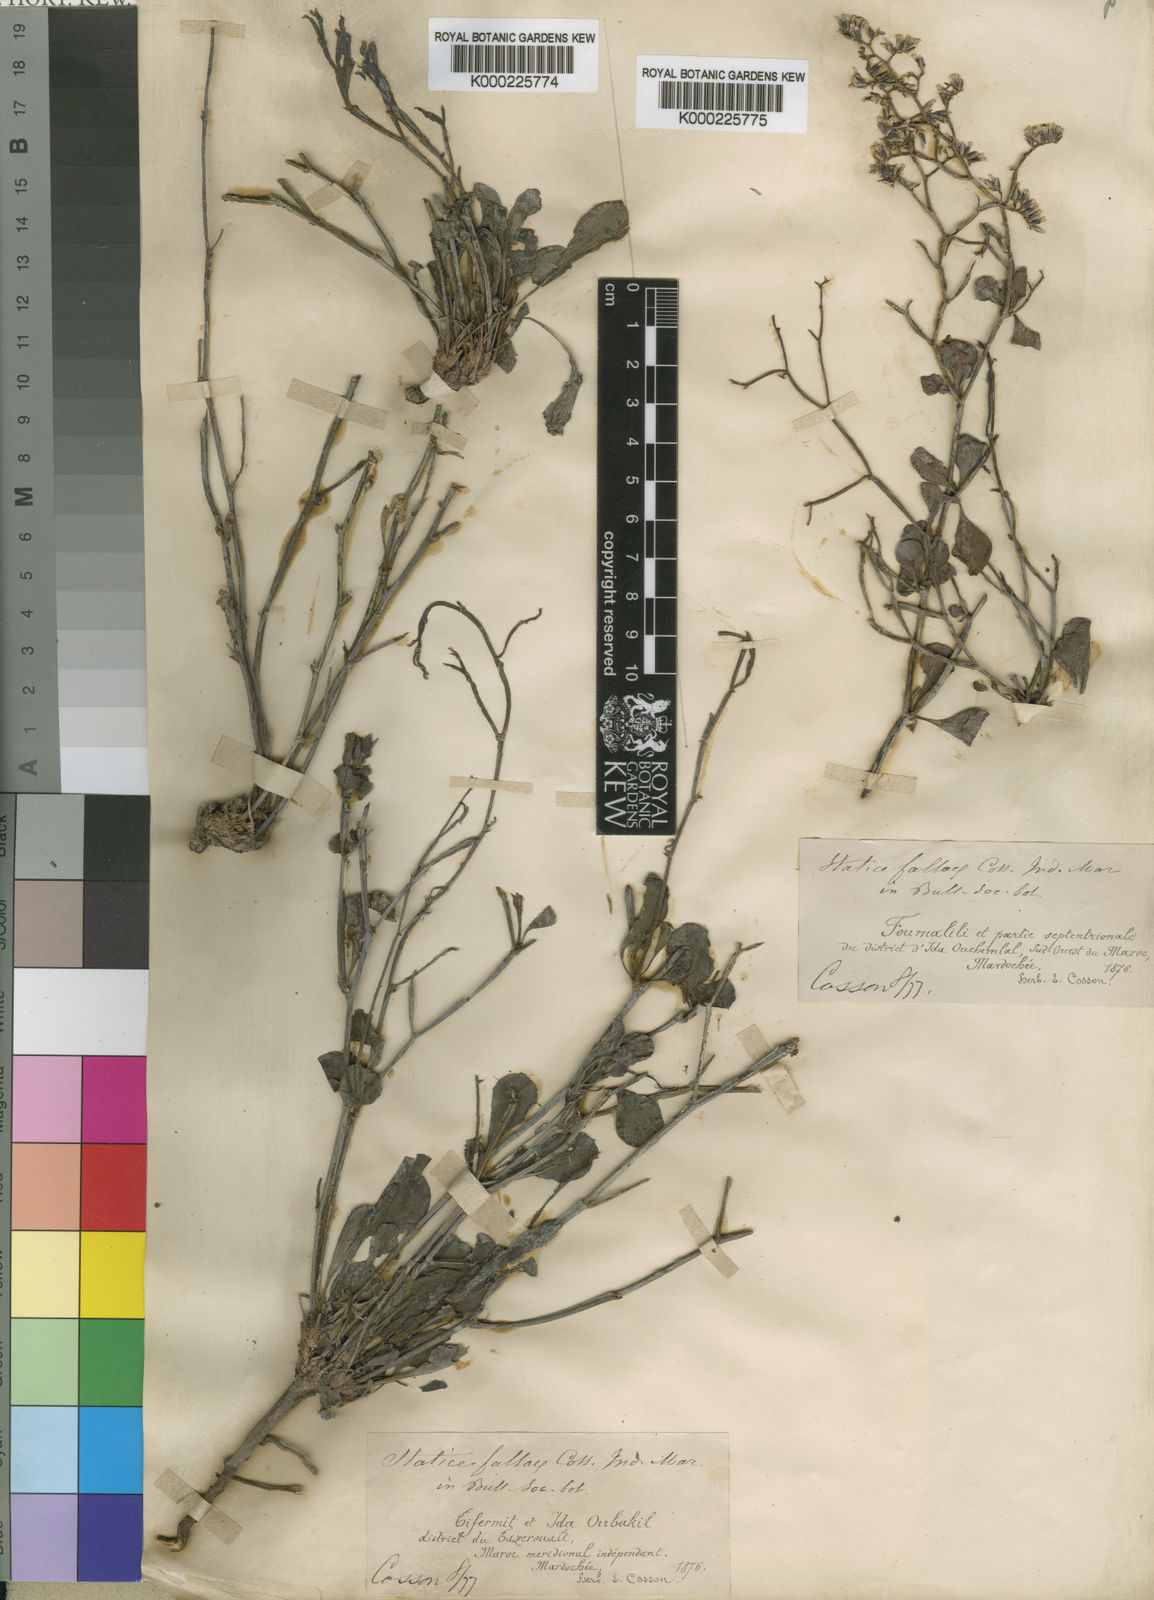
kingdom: Plantae
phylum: Tracheophyta
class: Magnoliopsida
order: Caryophyllales
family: Plumbaginaceae
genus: Limonium
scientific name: Limonium fallax
